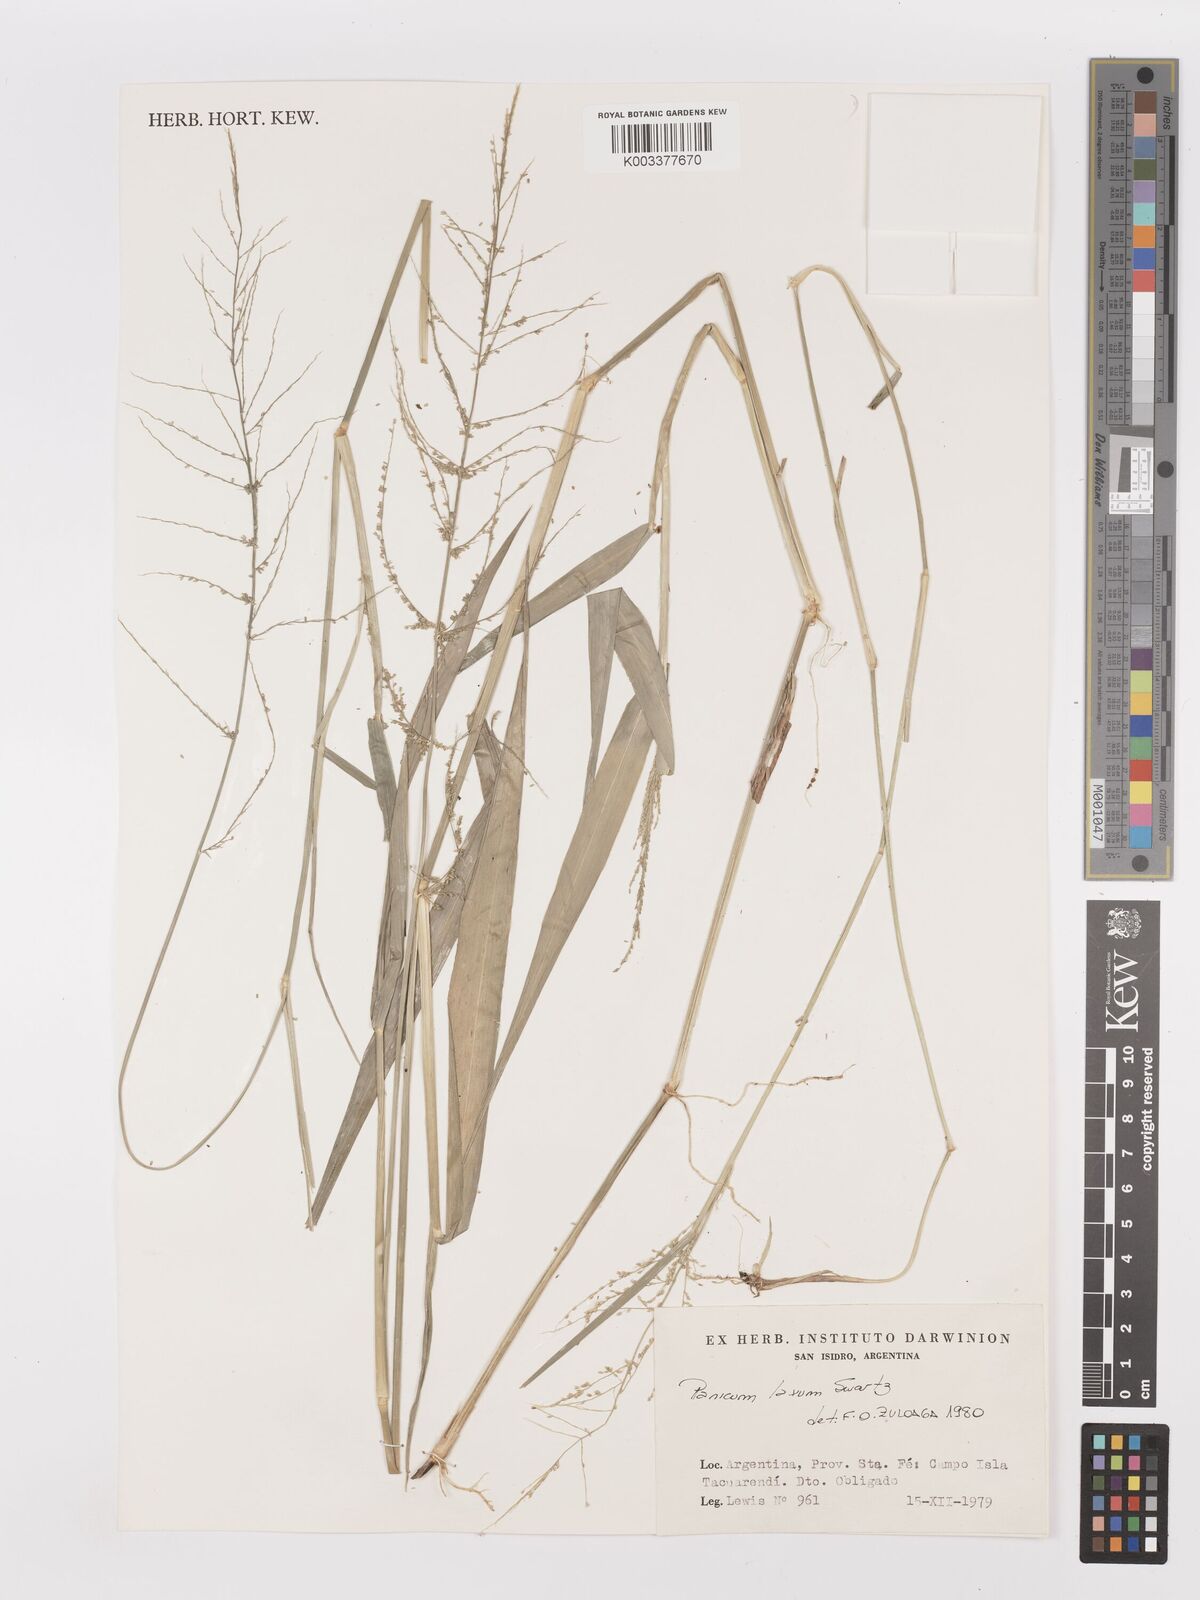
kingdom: Plantae
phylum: Tracheophyta
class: Liliopsida
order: Poales
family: Poaceae
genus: Steinchisma
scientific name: Steinchisma laxum
